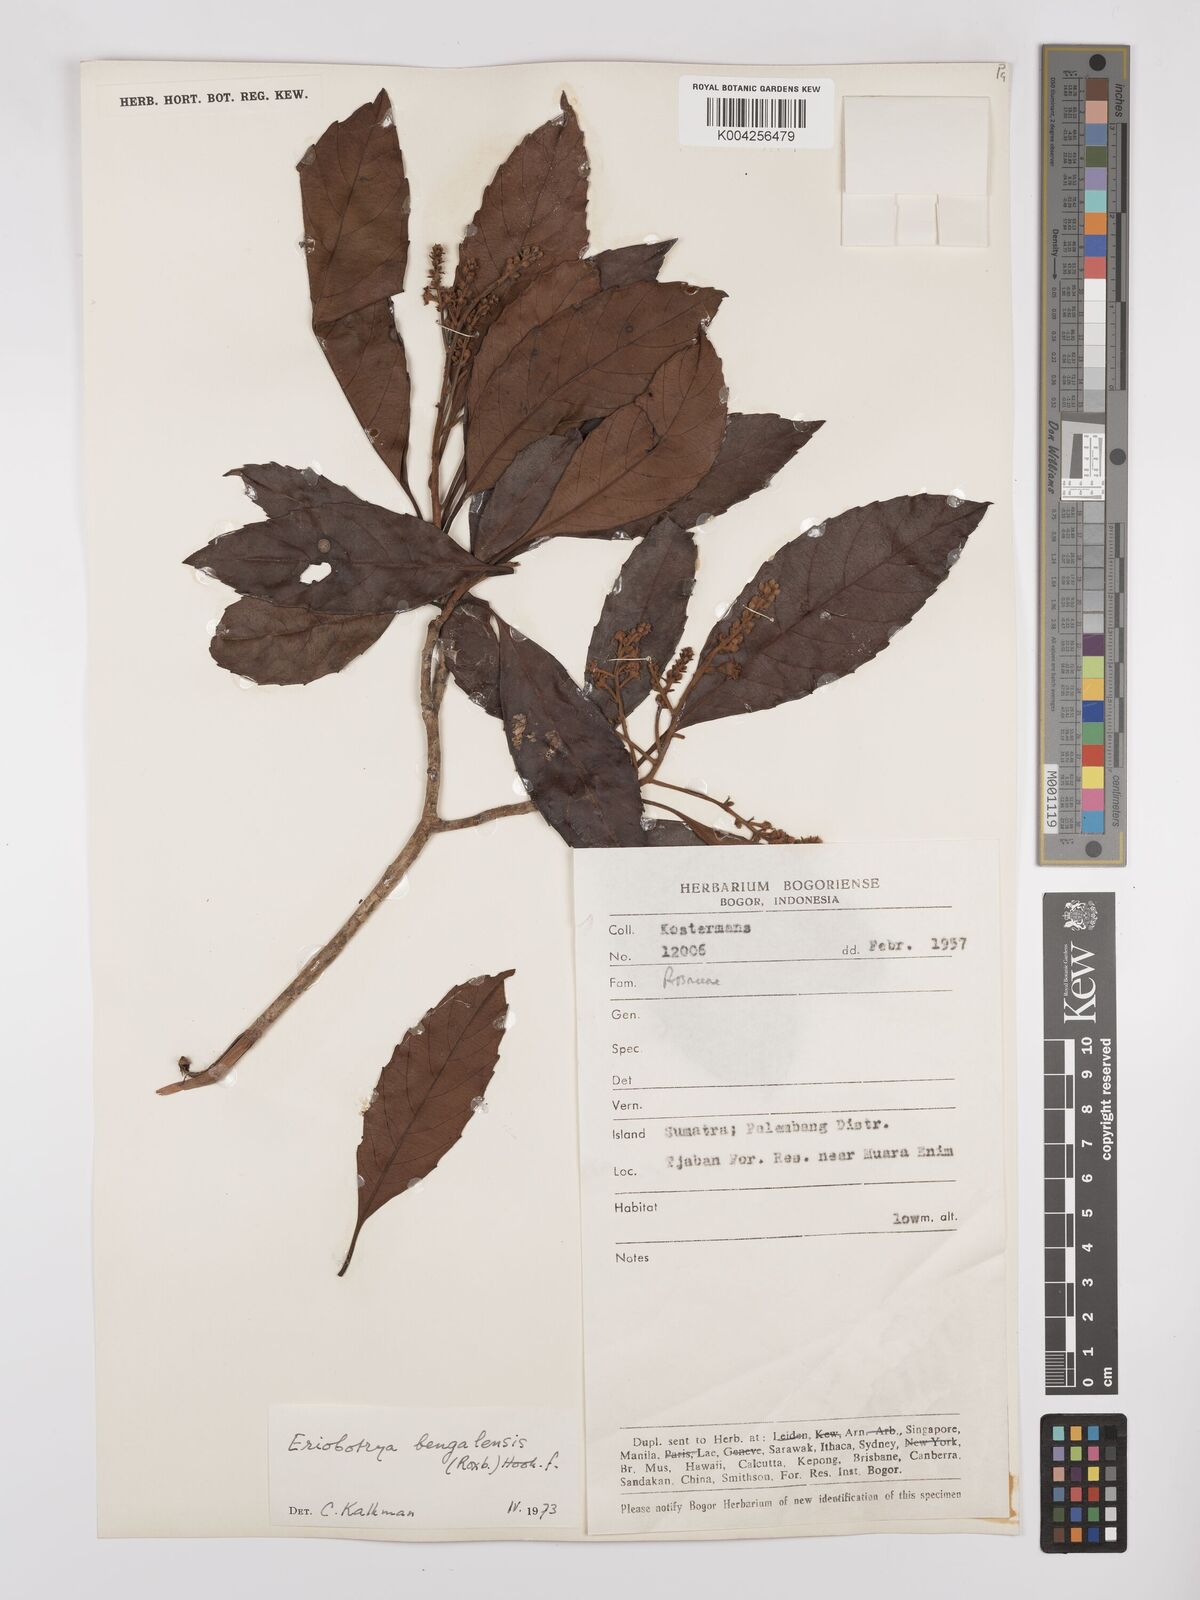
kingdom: Plantae
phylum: Tracheophyta
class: Magnoliopsida
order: Rosales
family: Rosaceae
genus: Rhaphiolepis
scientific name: Rhaphiolepis bengalensis
